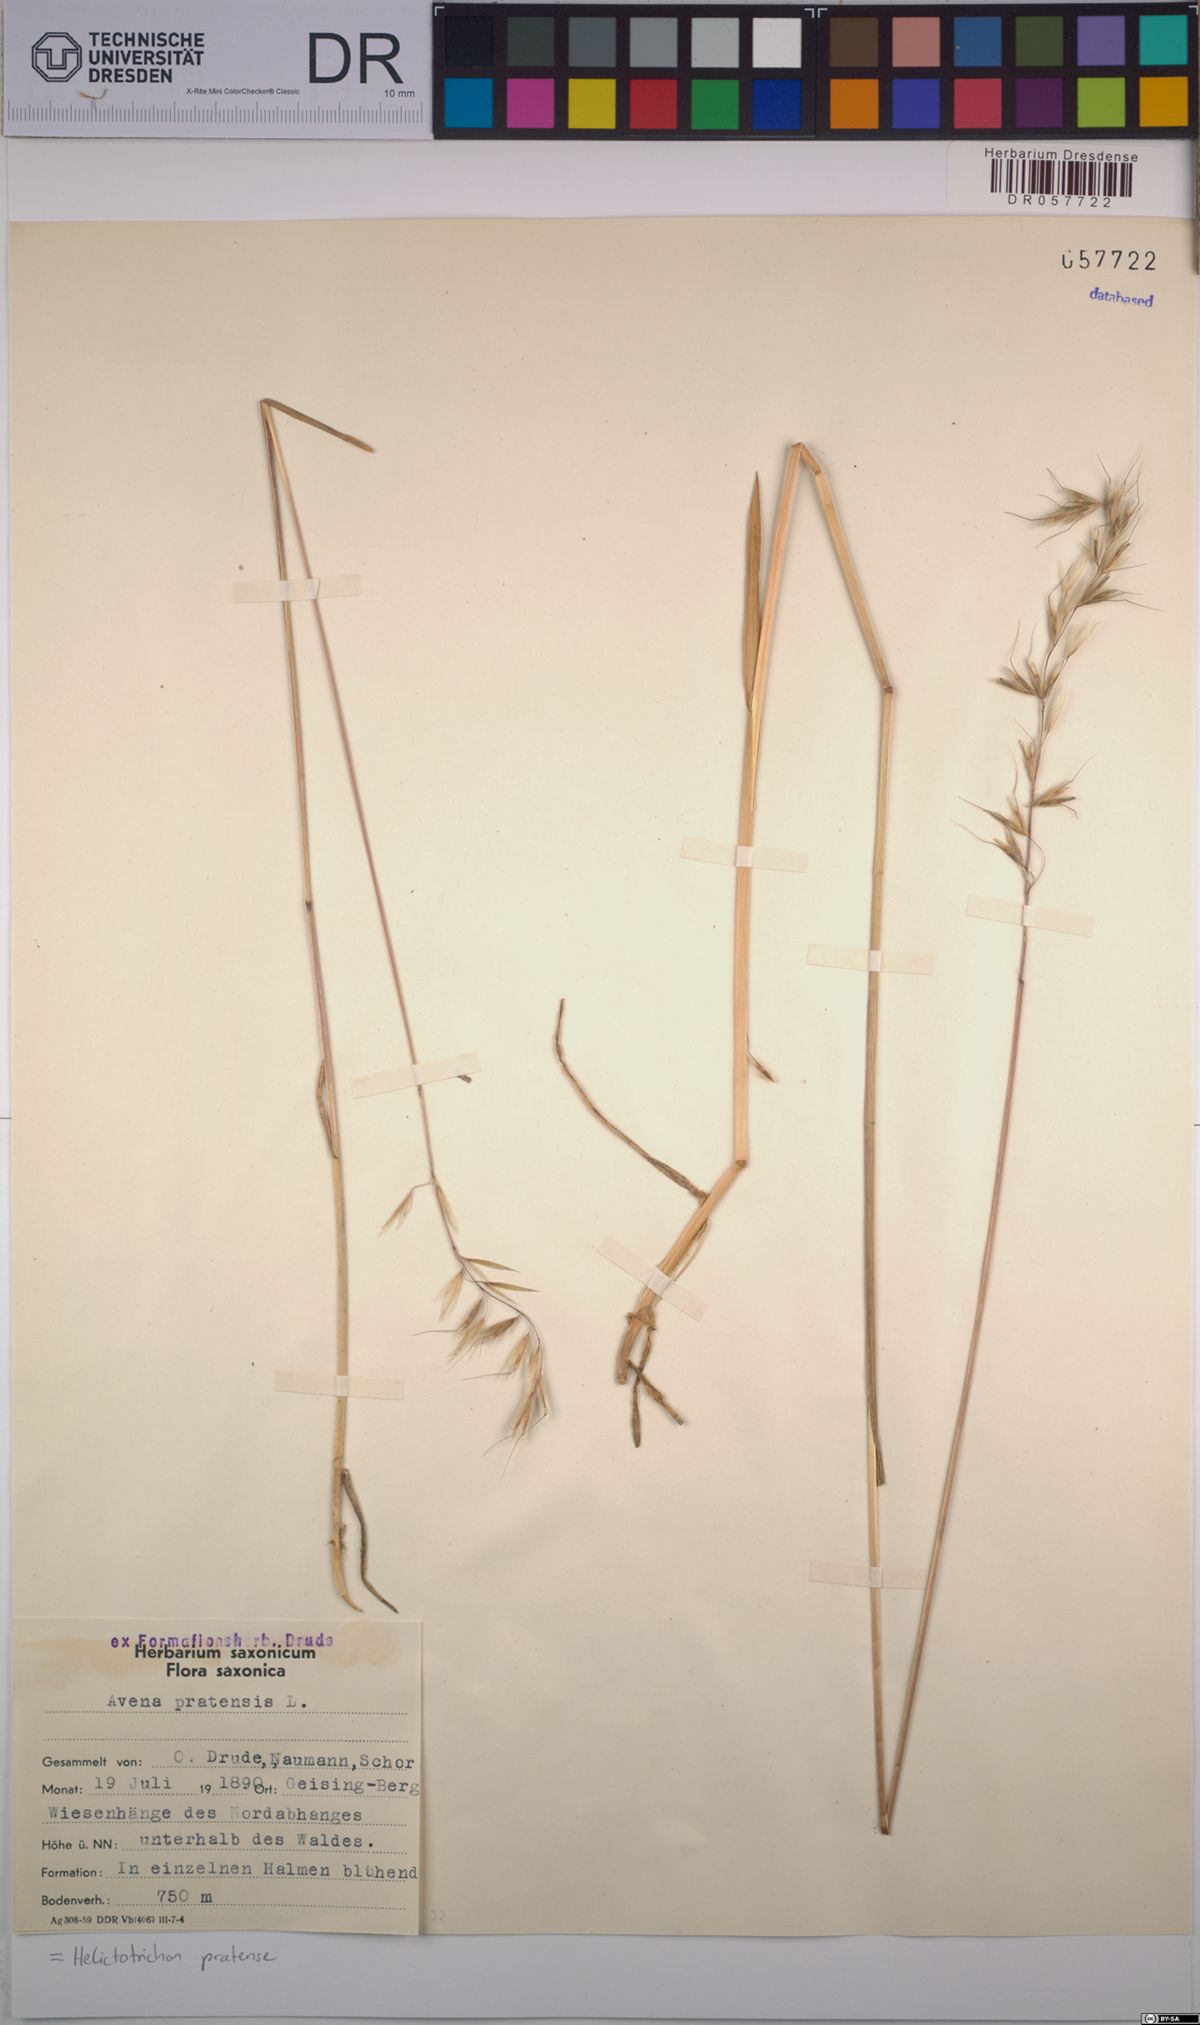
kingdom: Plantae
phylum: Tracheophyta
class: Liliopsida
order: Poales
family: Poaceae
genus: Helictochloa
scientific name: Helictochloa pratensis
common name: Meadow oat grass
